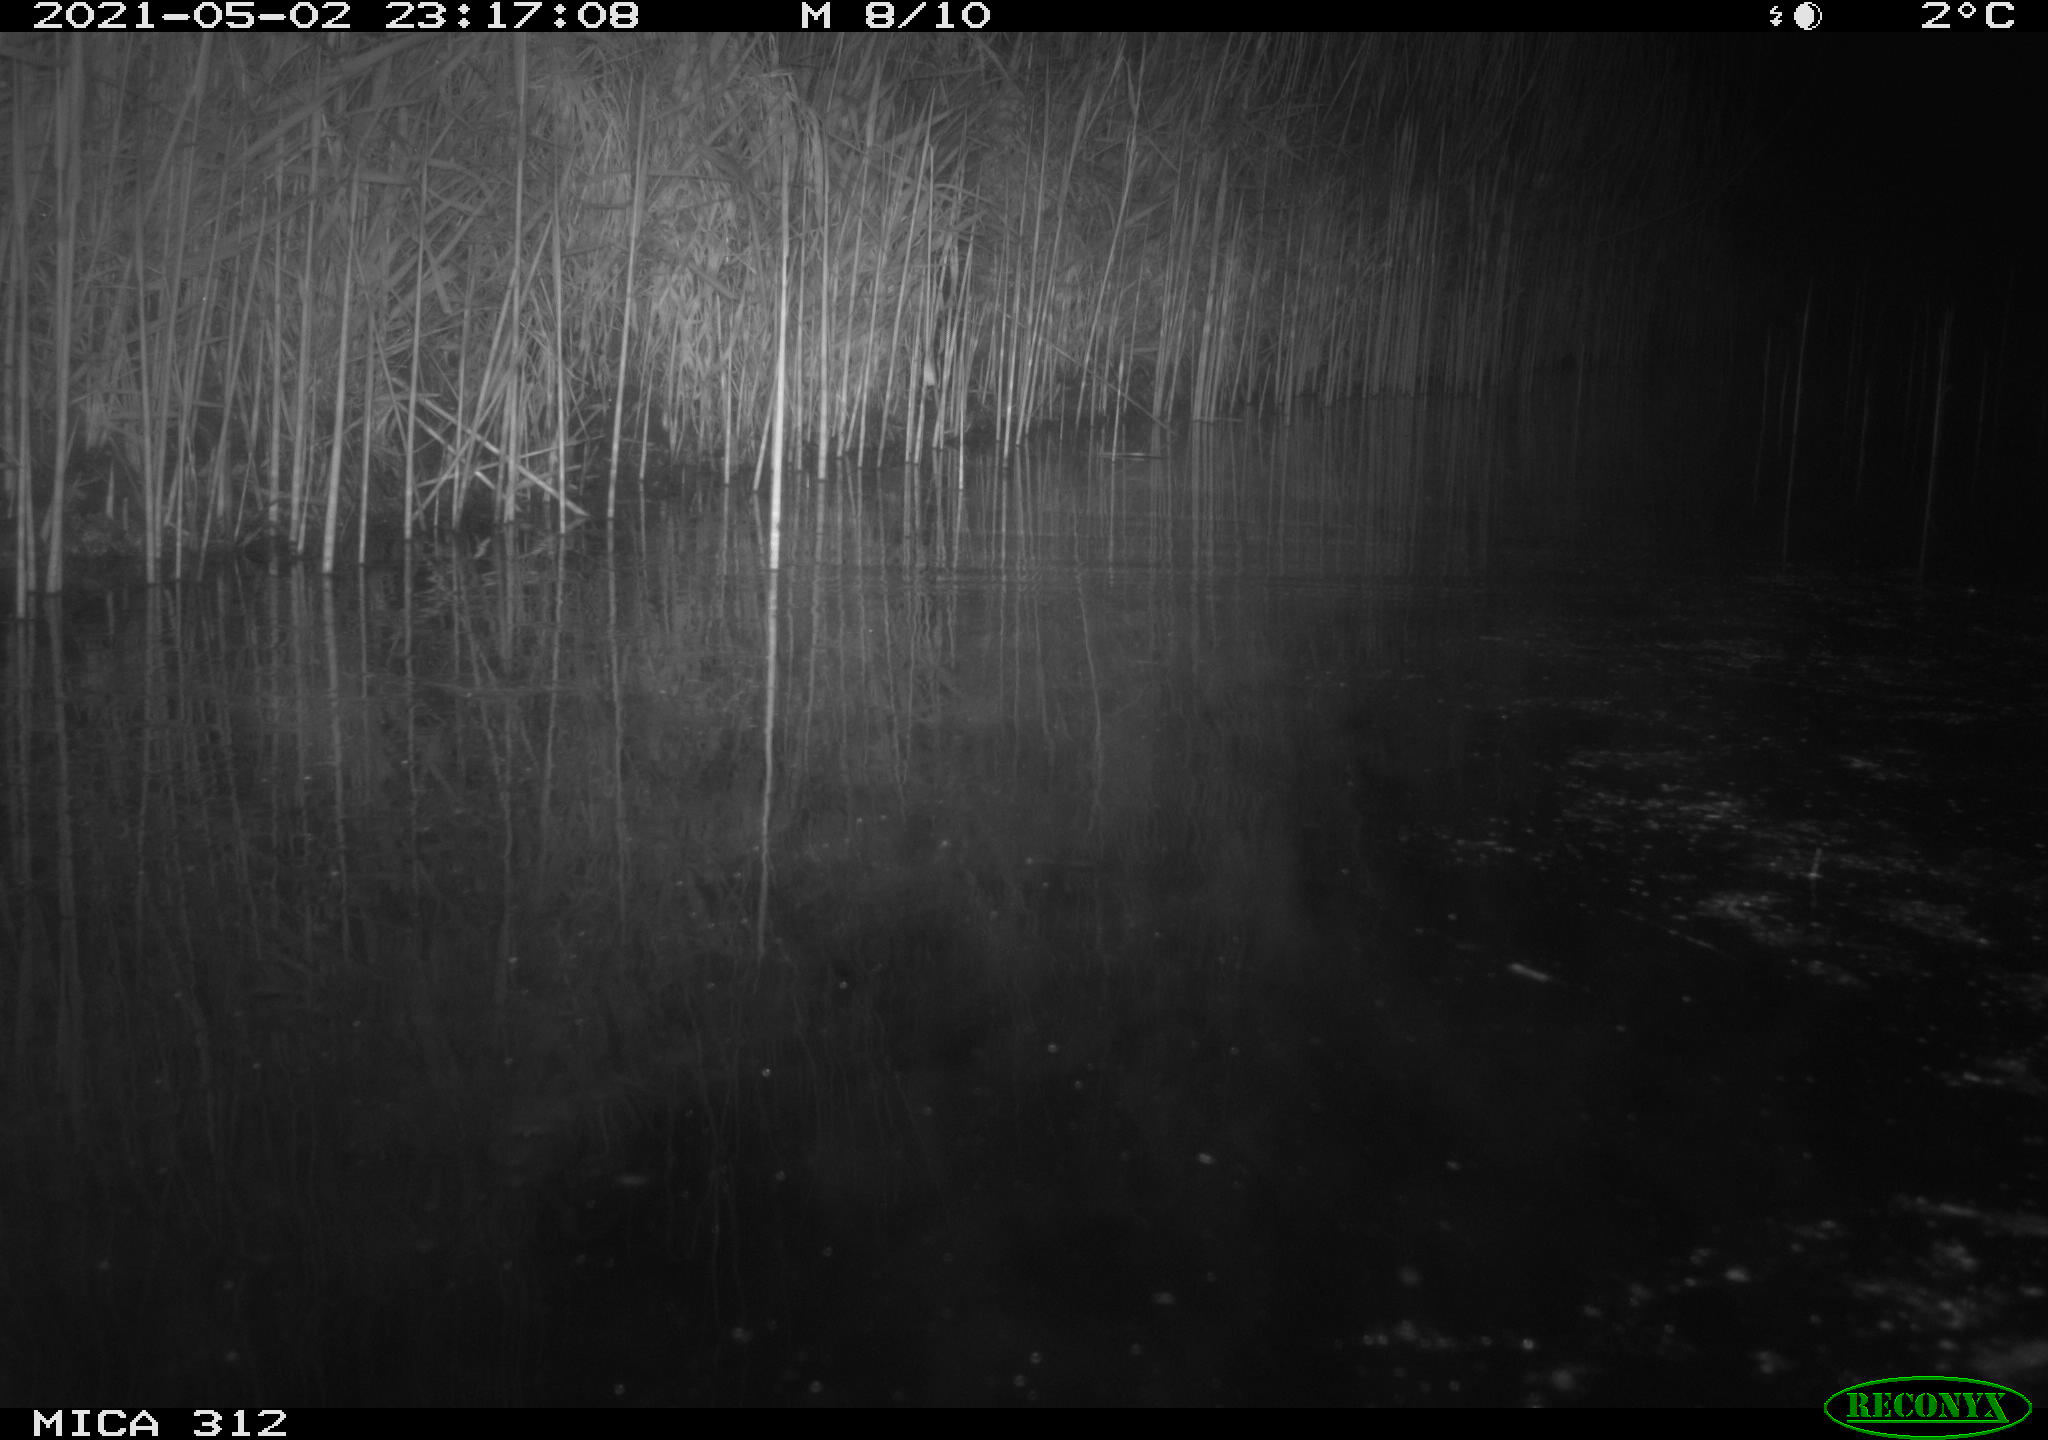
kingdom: Animalia
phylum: Chordata
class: Mammalia
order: Rodentia
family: Muridae
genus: Rattus
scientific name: Rattus norvegicus
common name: Brown rat
